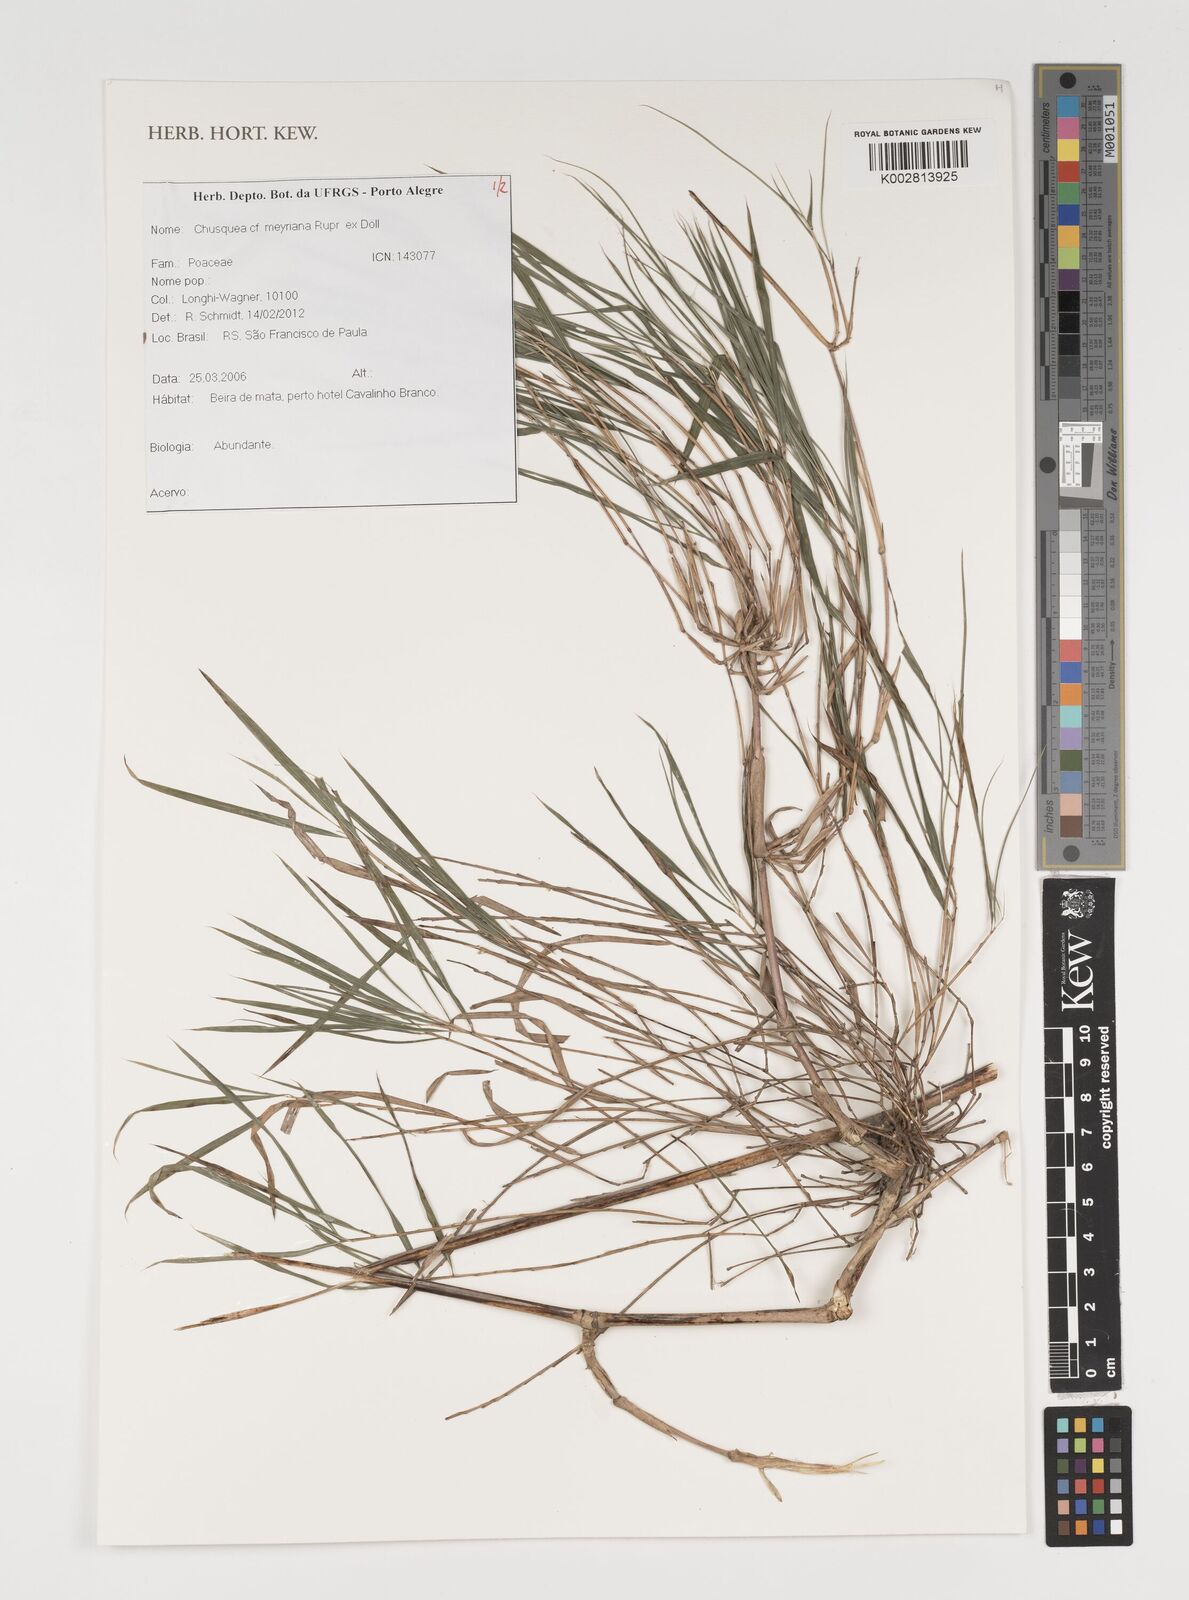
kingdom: Plantae
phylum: Tracheophyta
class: Liliopsida
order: Poales
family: Poaceae
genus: Chusquea
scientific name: Chusquea meyeriana
